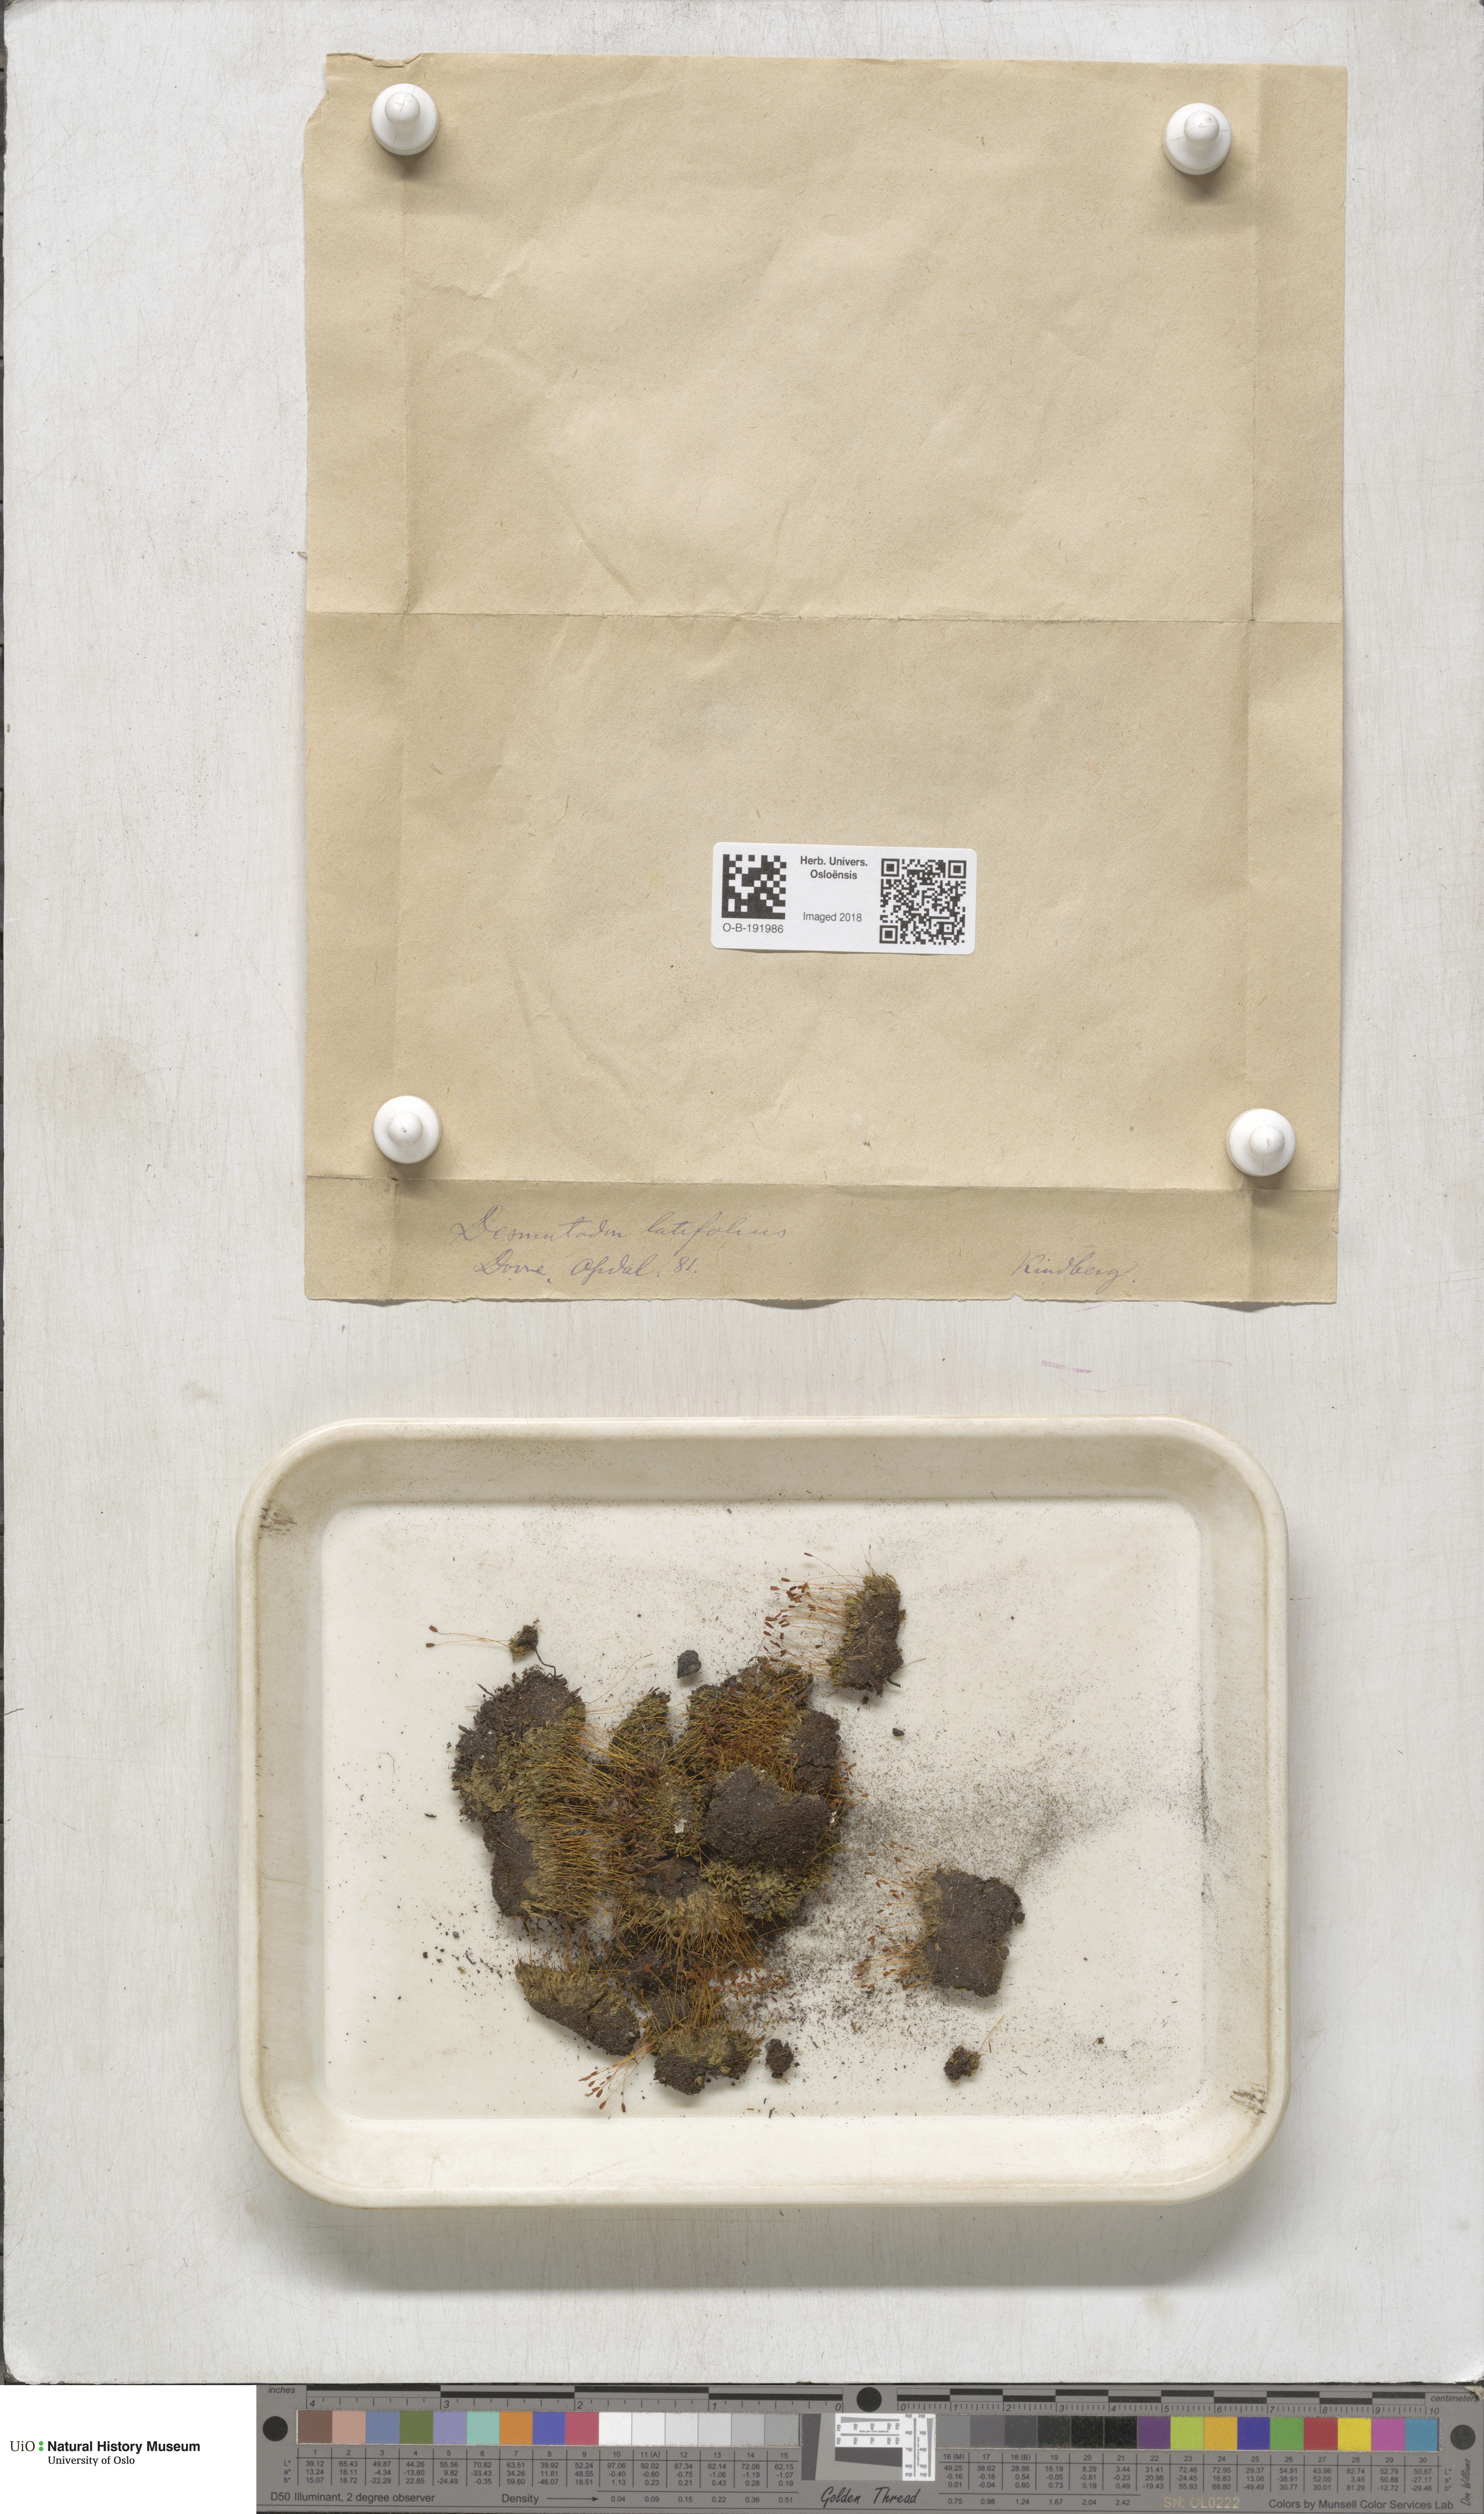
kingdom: Plantae
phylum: Bryophyta
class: Bryopsida
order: Pottiales
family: Pottiaceae
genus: Tortula
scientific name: Tortula hoppeana
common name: Hoppe's screw moss
